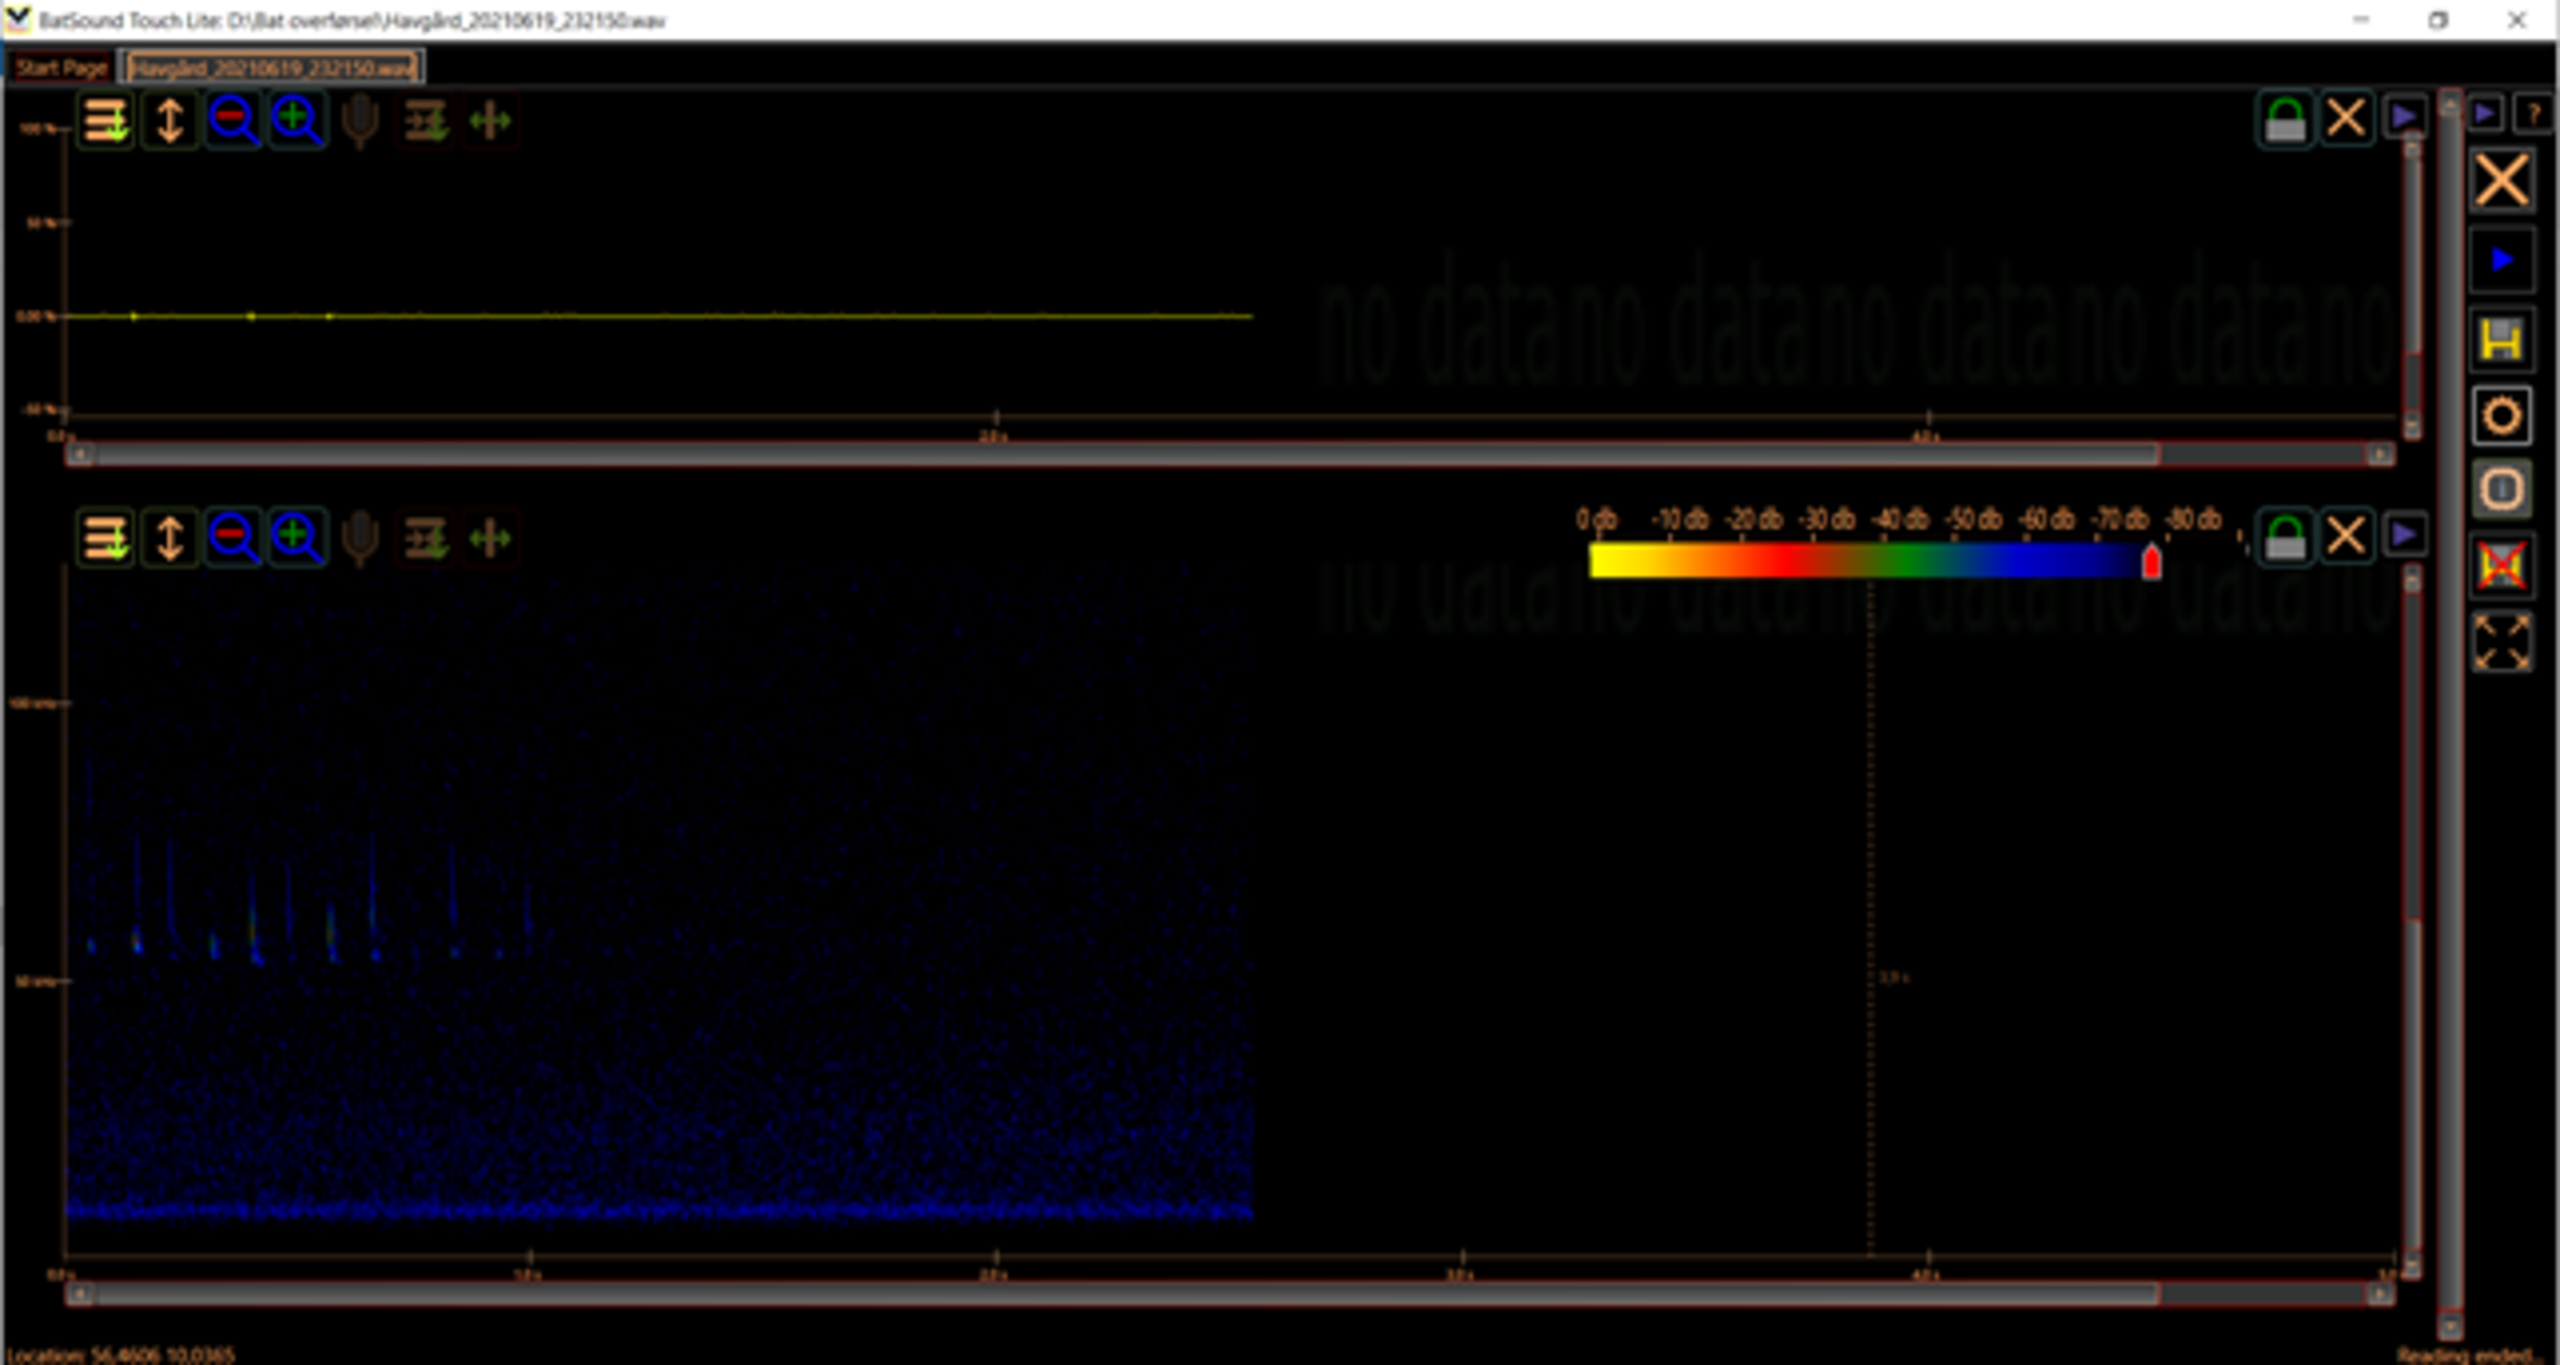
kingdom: Animalia
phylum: Chordata
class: Mammalia
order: Chiroptera
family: Vespertilionidae
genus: Pipistrellus
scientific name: Pipistrellus pygmaeus
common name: Dværgflagermus
